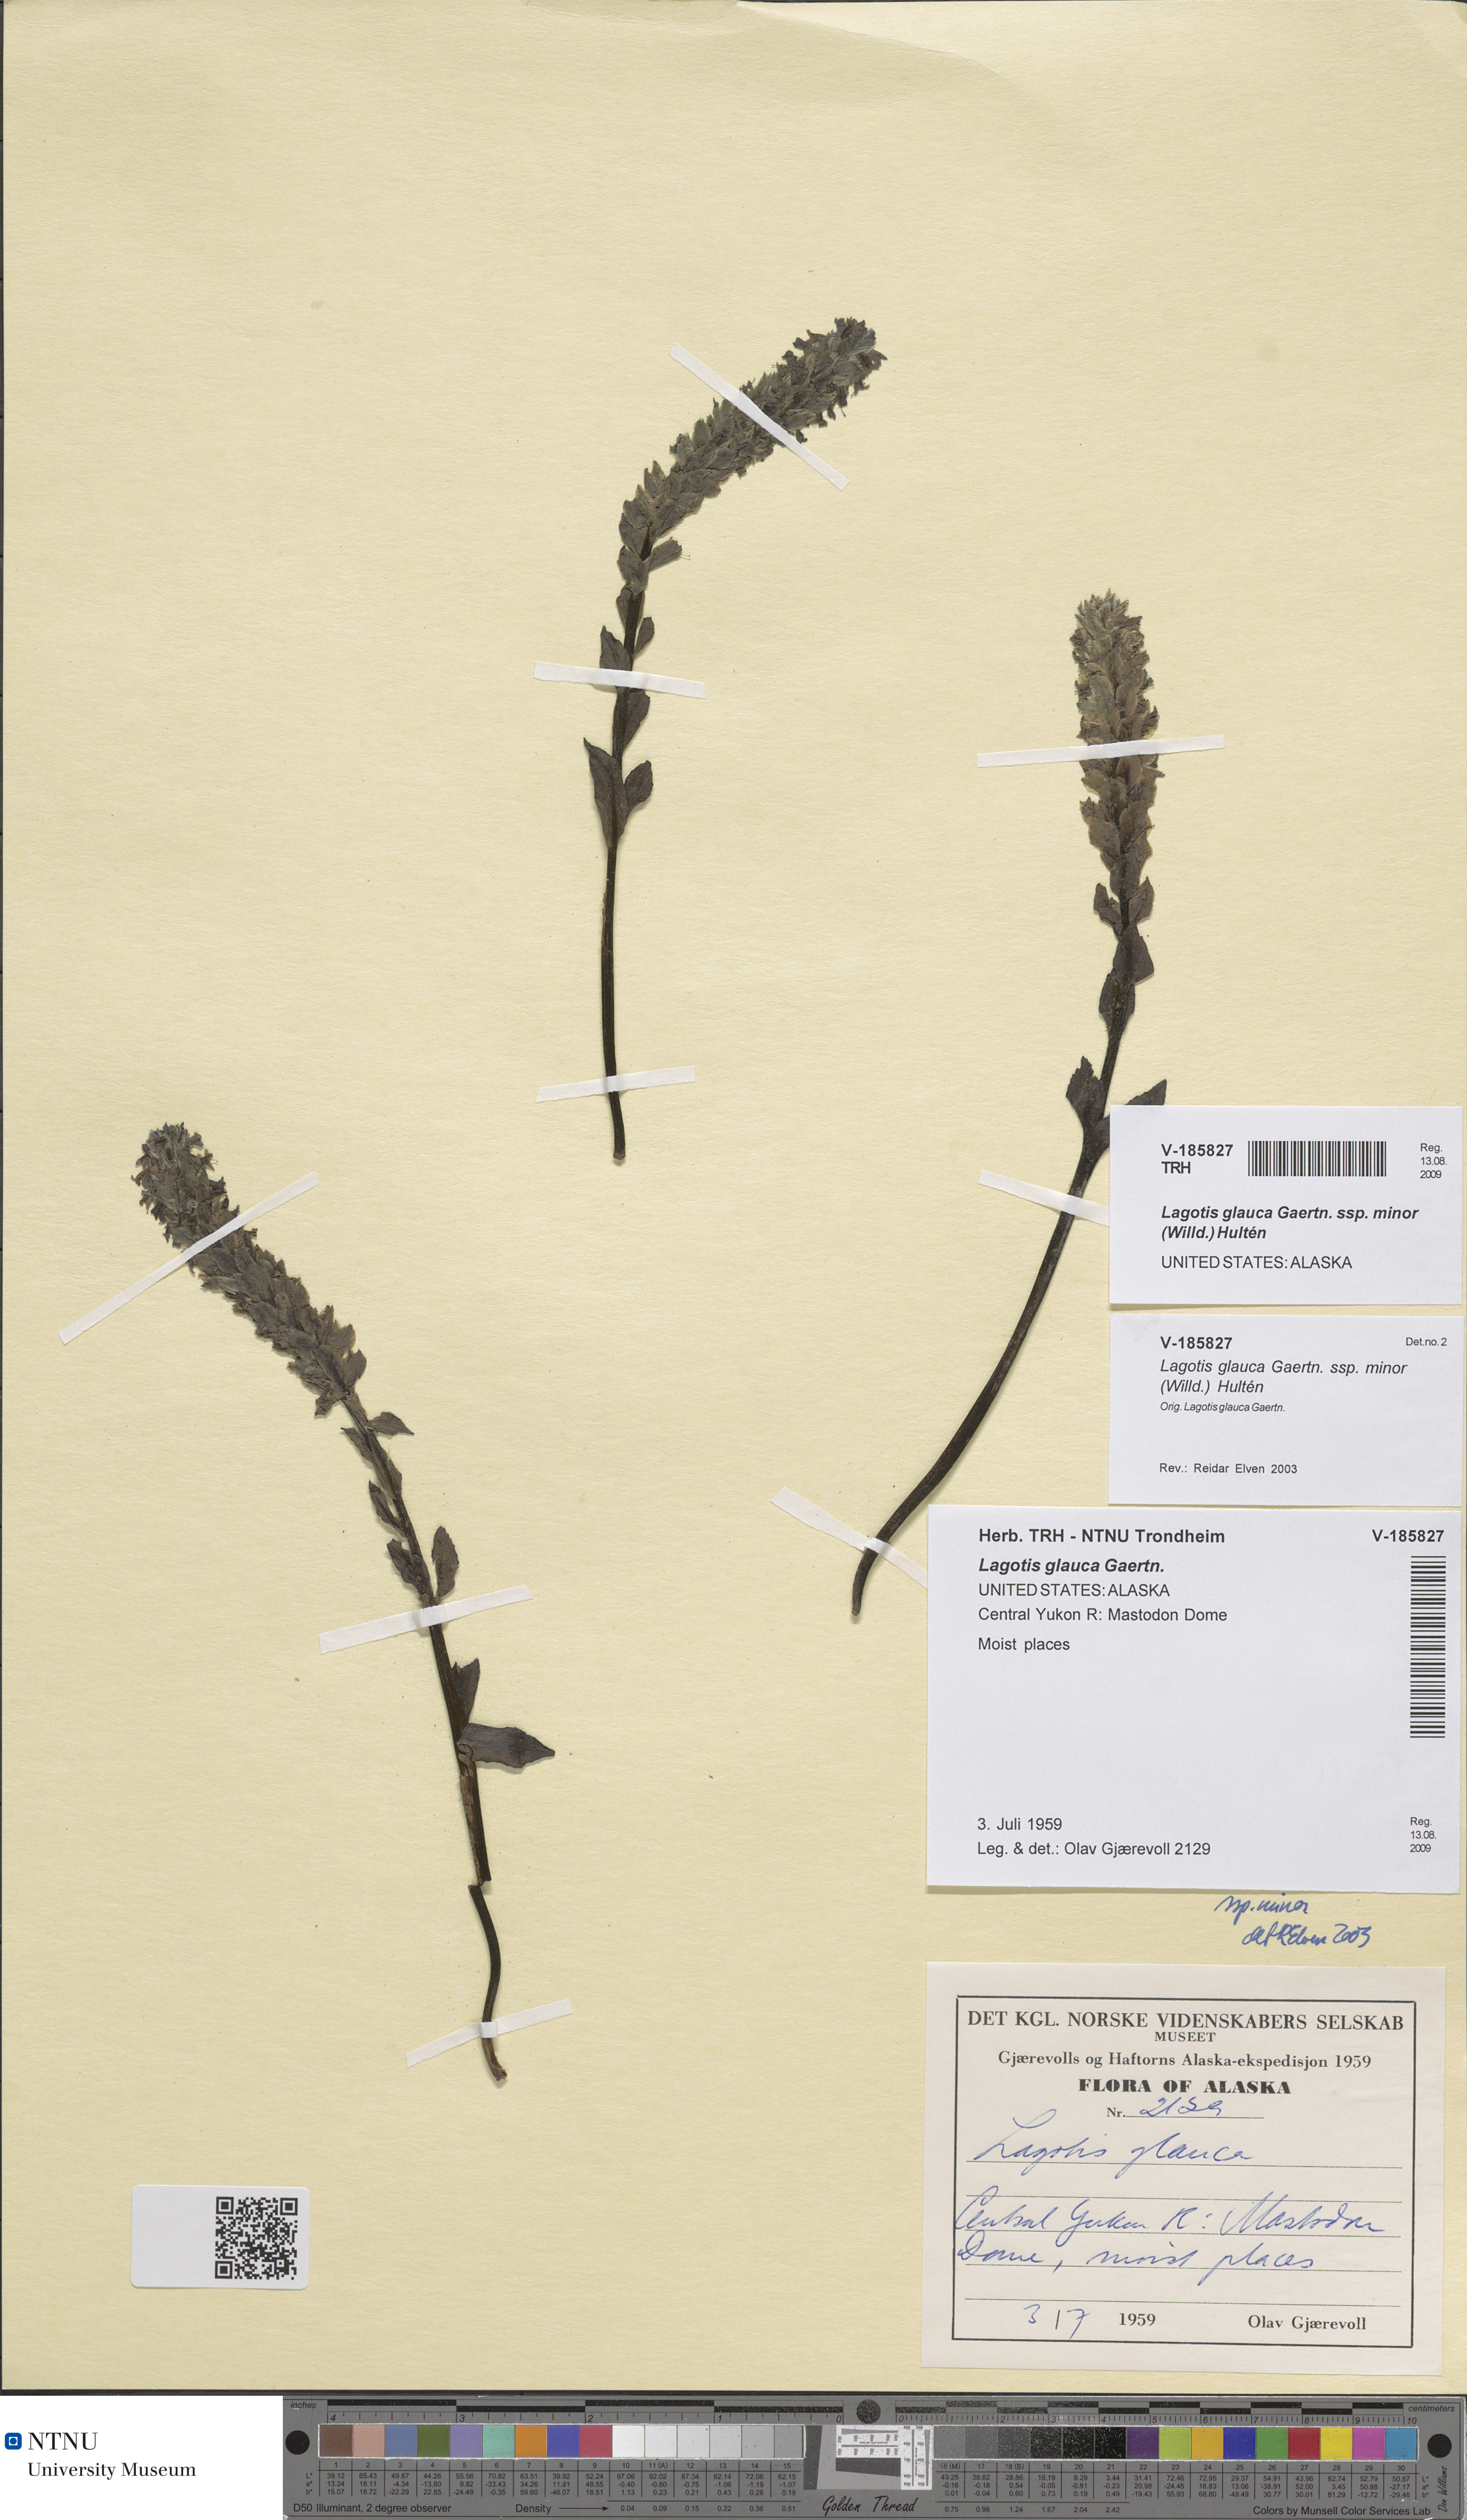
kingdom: Plantae
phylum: Tracheophyta
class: Magnoliopsida
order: Lamiales
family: Plantaginaceae
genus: Lagotis
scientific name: Lagotis glauca
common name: Glaucous weaselsnout
